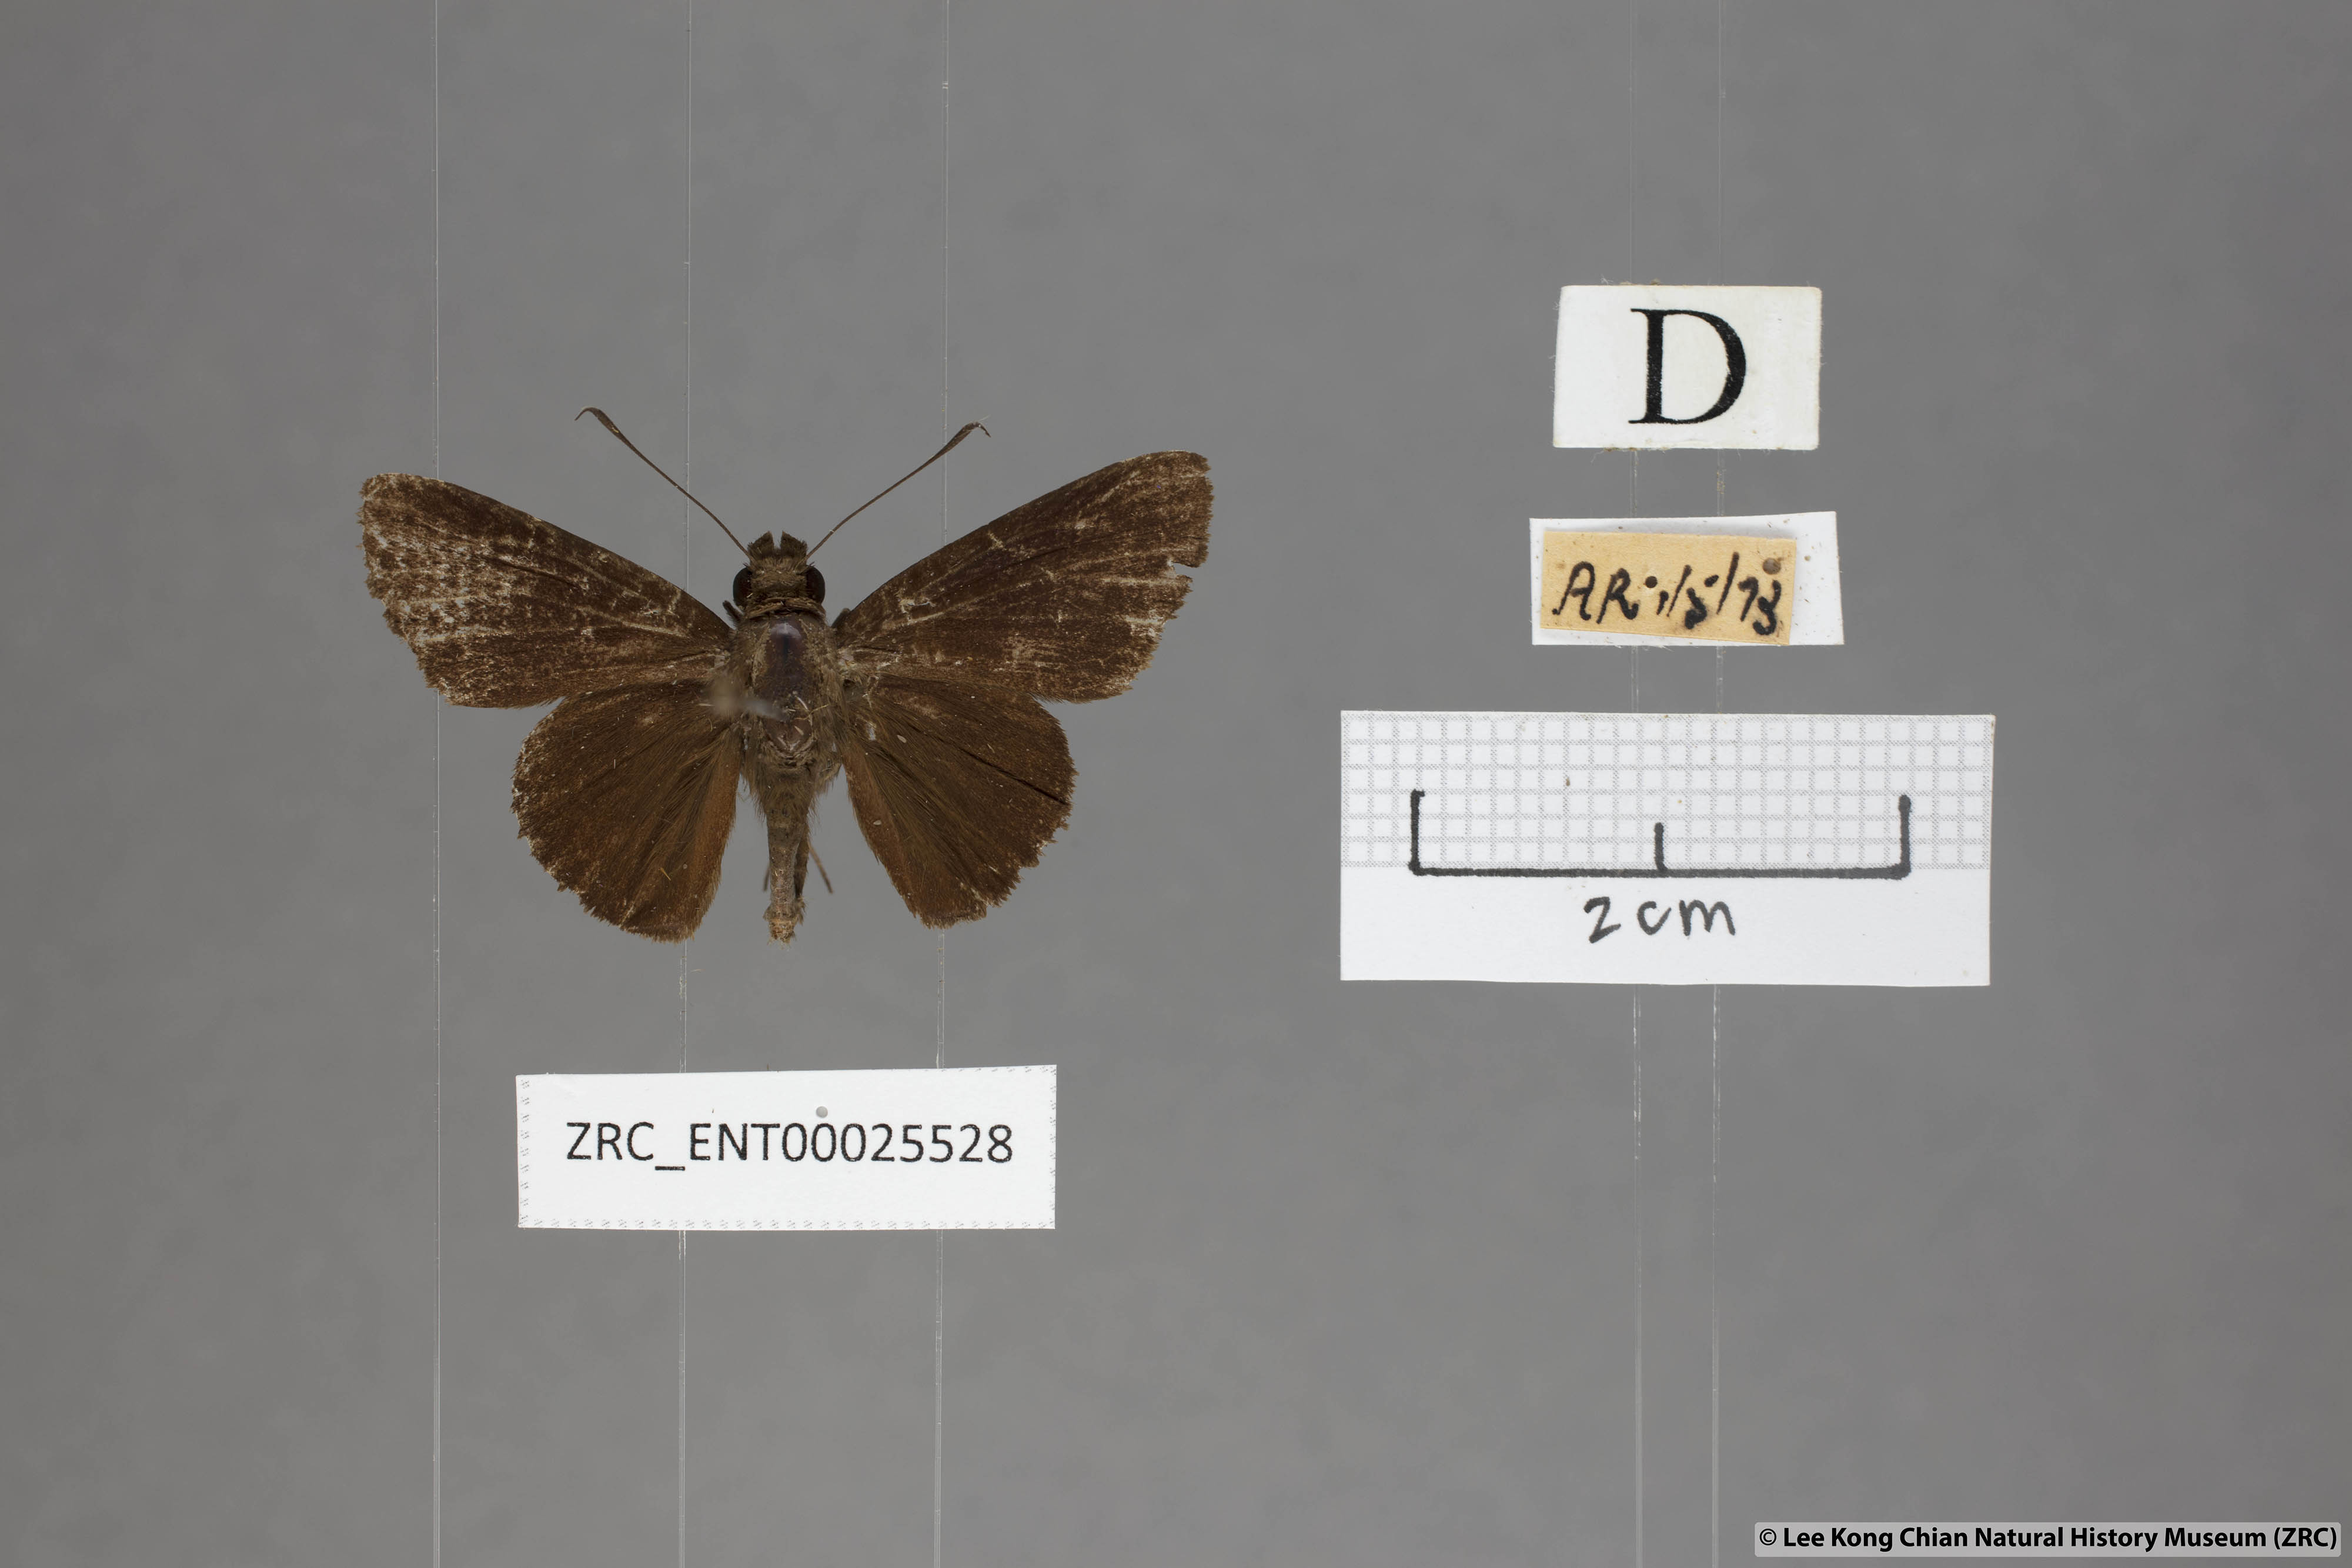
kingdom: Animalia
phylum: Arthropoda
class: Insecta
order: Lepidoptera
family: Hesperiidae
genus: Quedara
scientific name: Quedara monteithi
